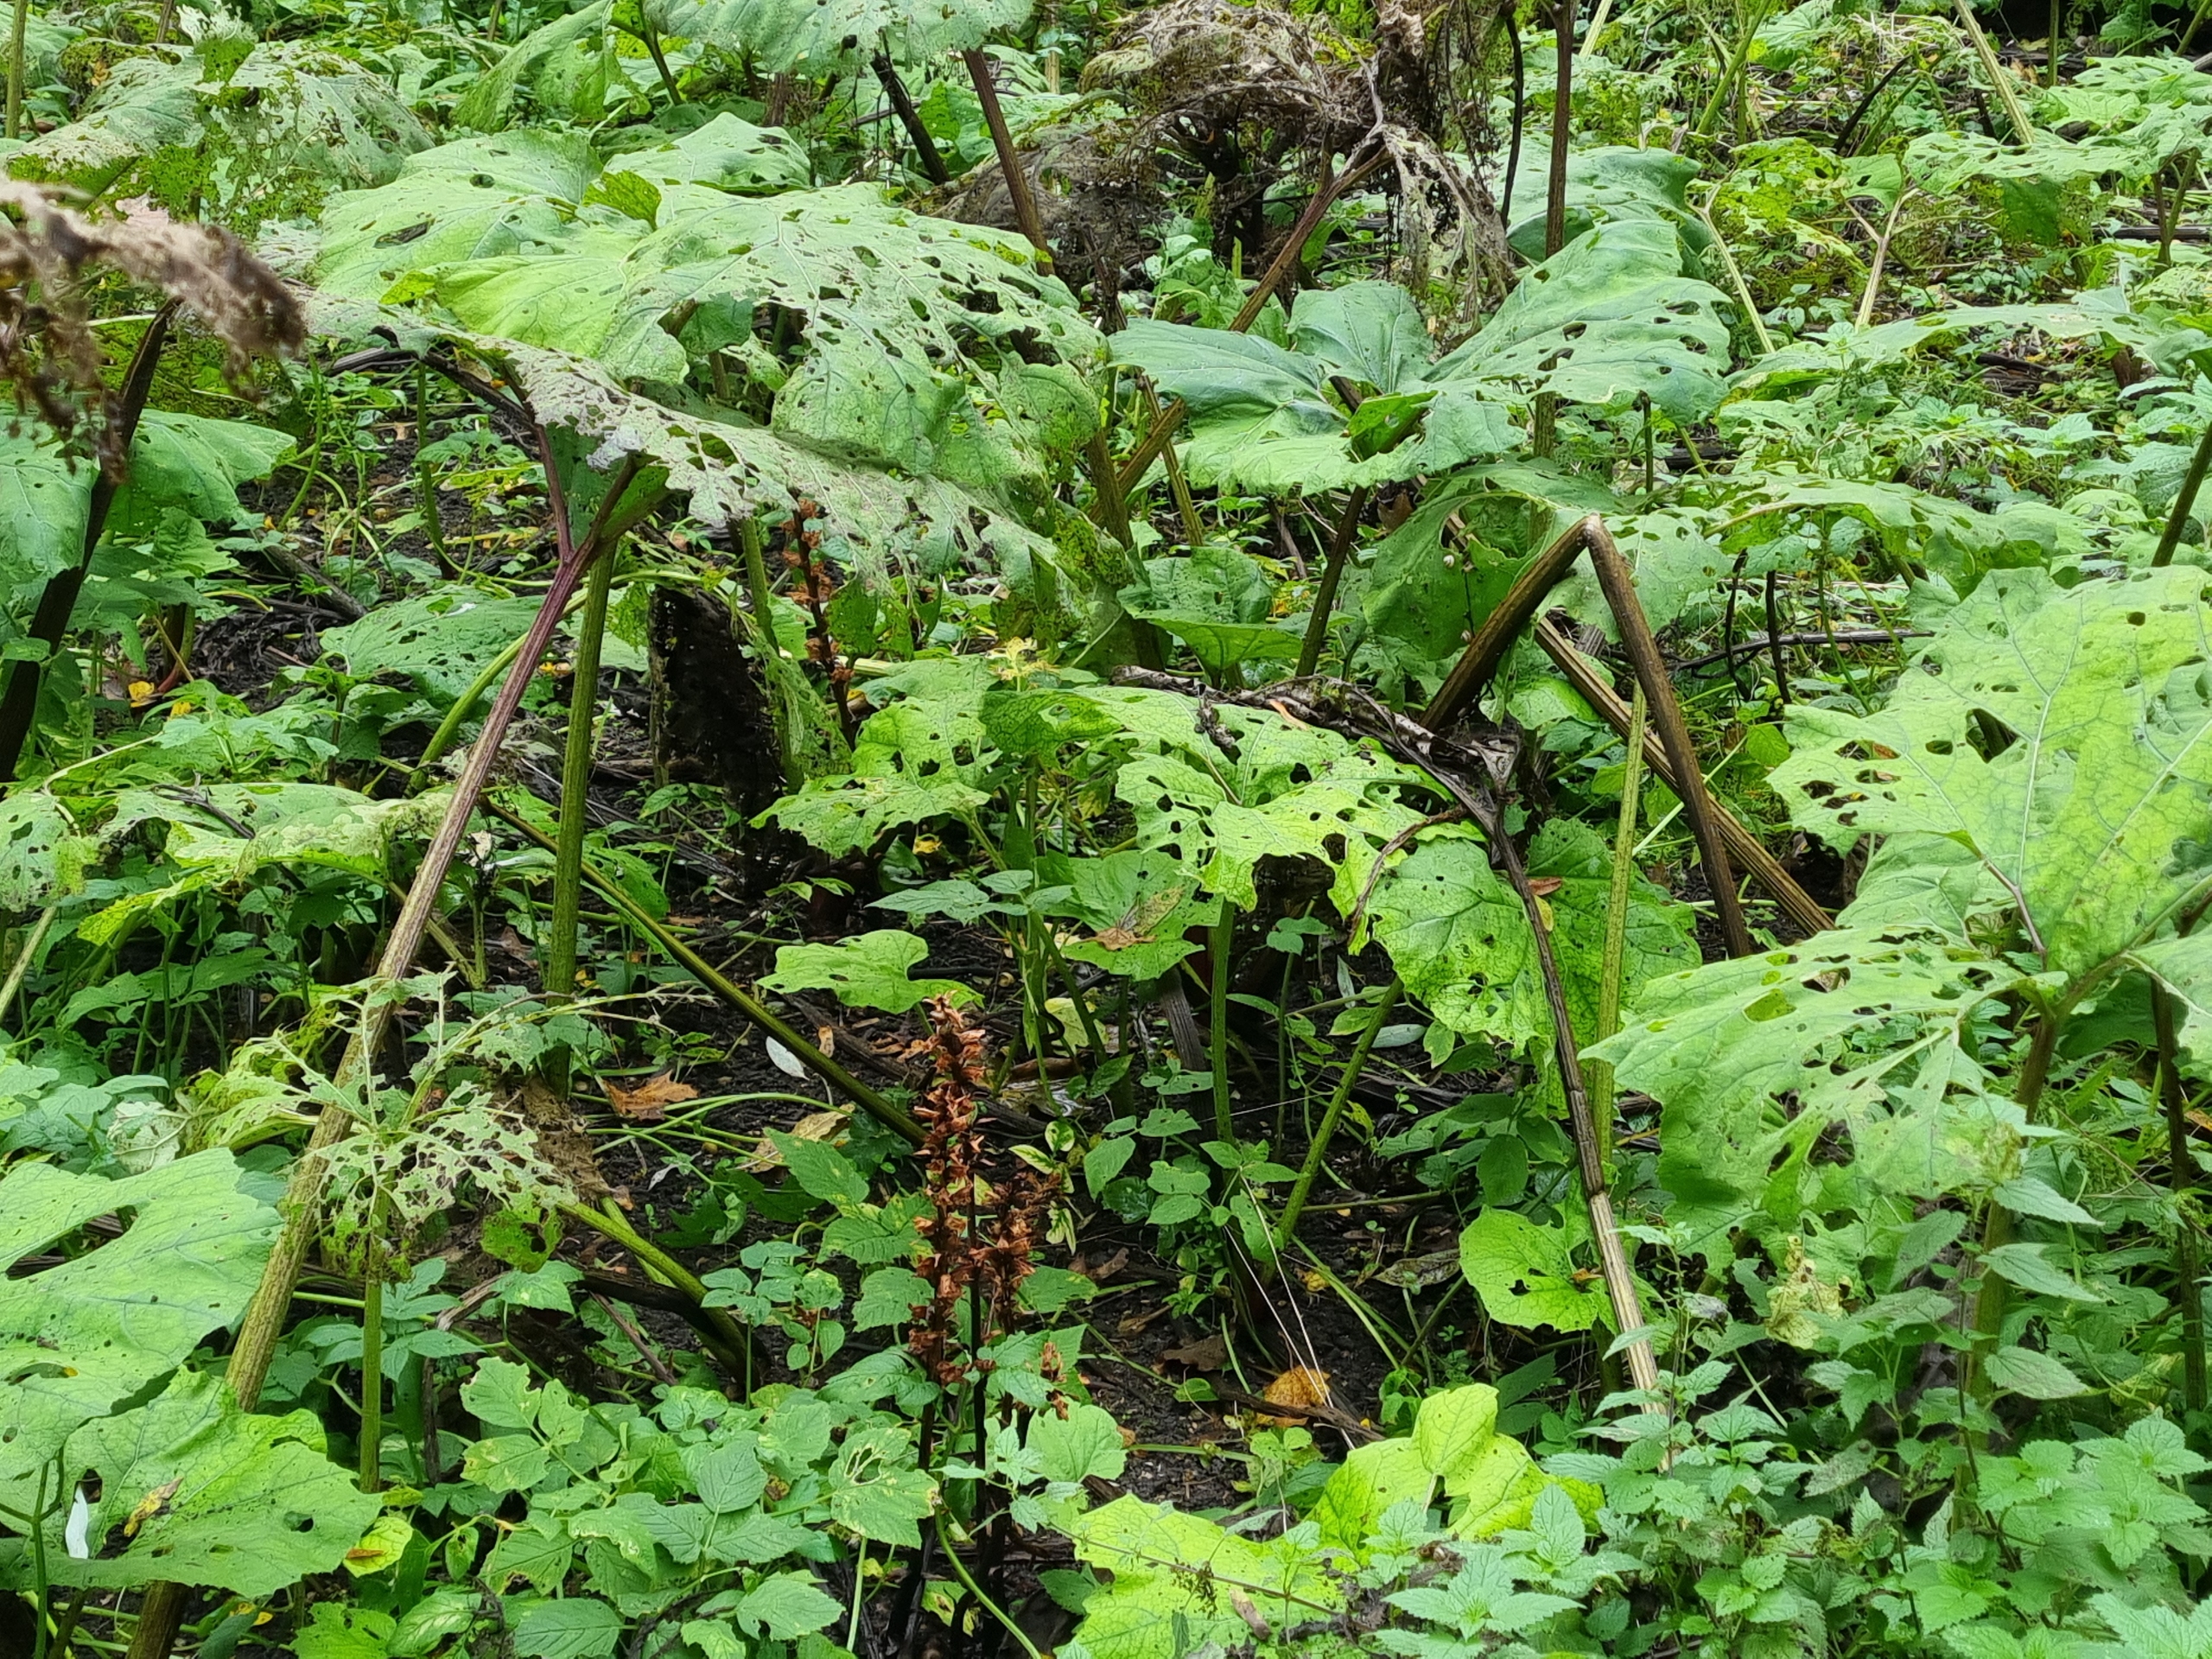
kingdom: Plantae
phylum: Tracheophyta
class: Magnoliopsida
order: Lamiales
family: Orobanchaceae
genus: Orobanche
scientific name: Orobanche flava
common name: Gul gyvelkvæler
